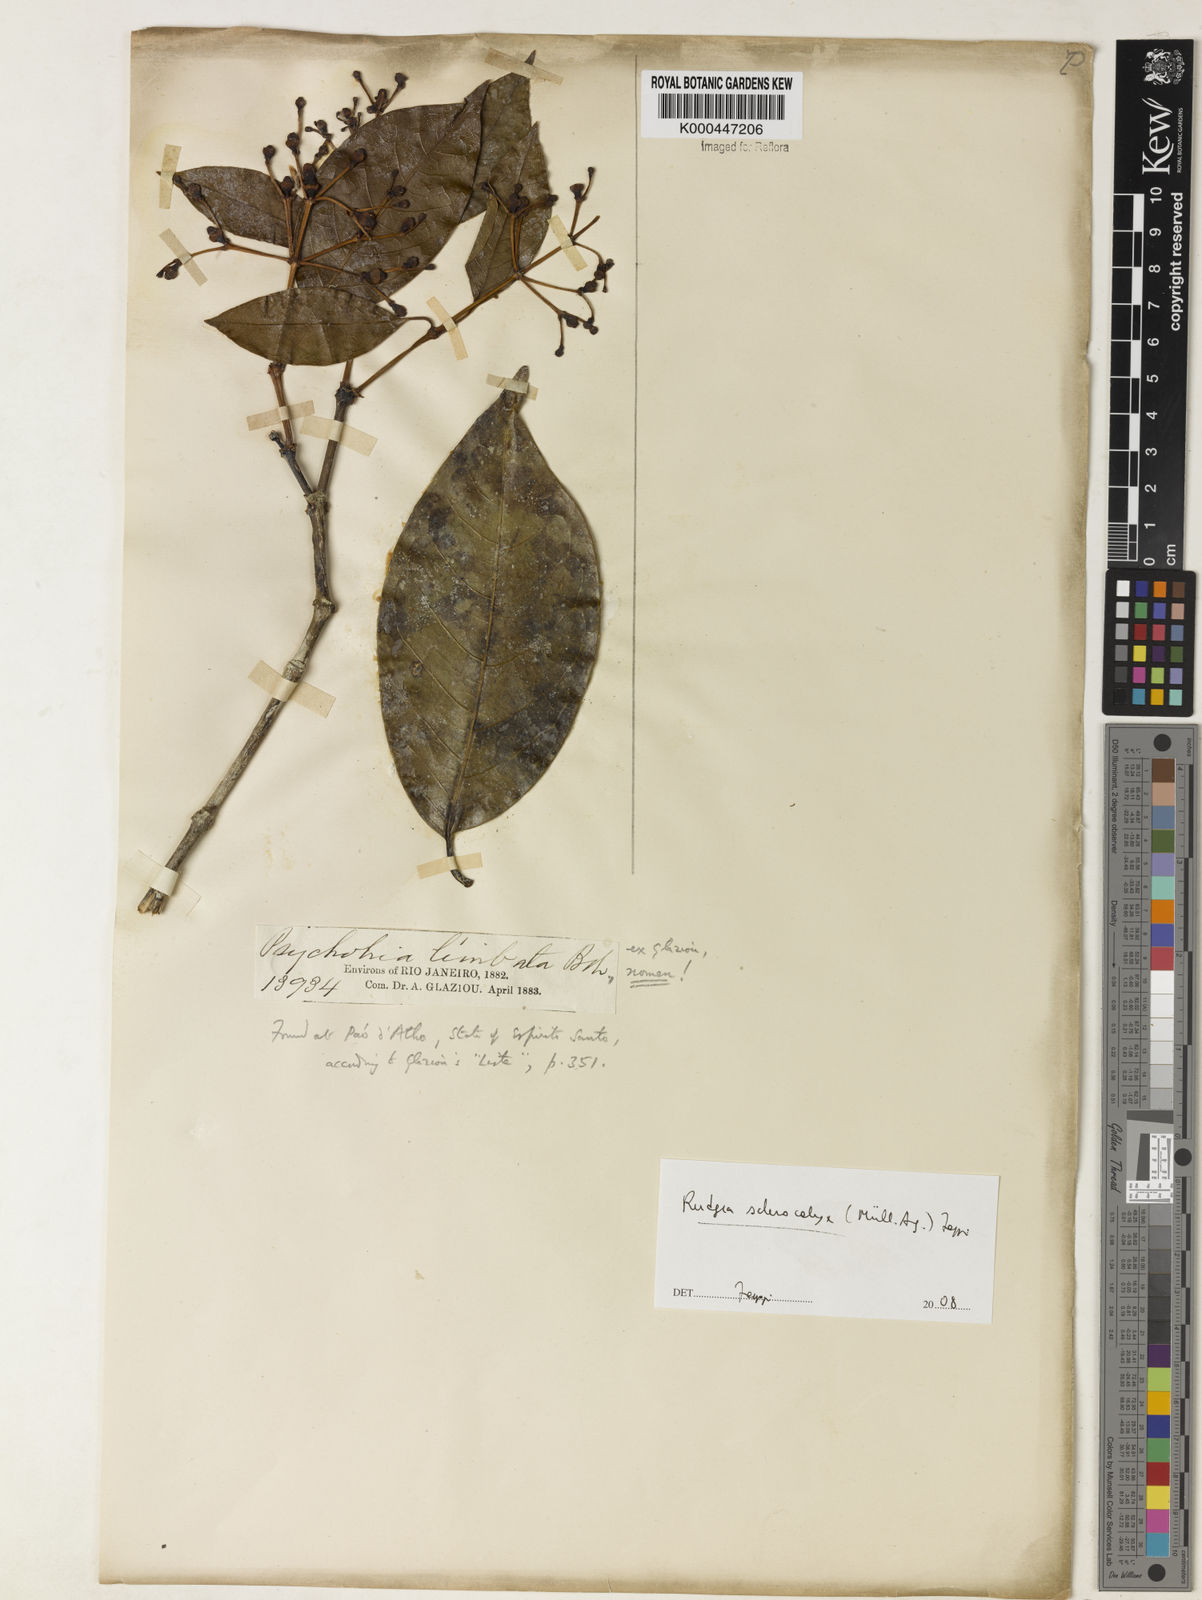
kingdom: Plantae
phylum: Tracheophyta
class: Magnoliopsida
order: Gentianales
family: Rubiaceae
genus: Rudgea
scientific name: Rudgea sclerocalyx
